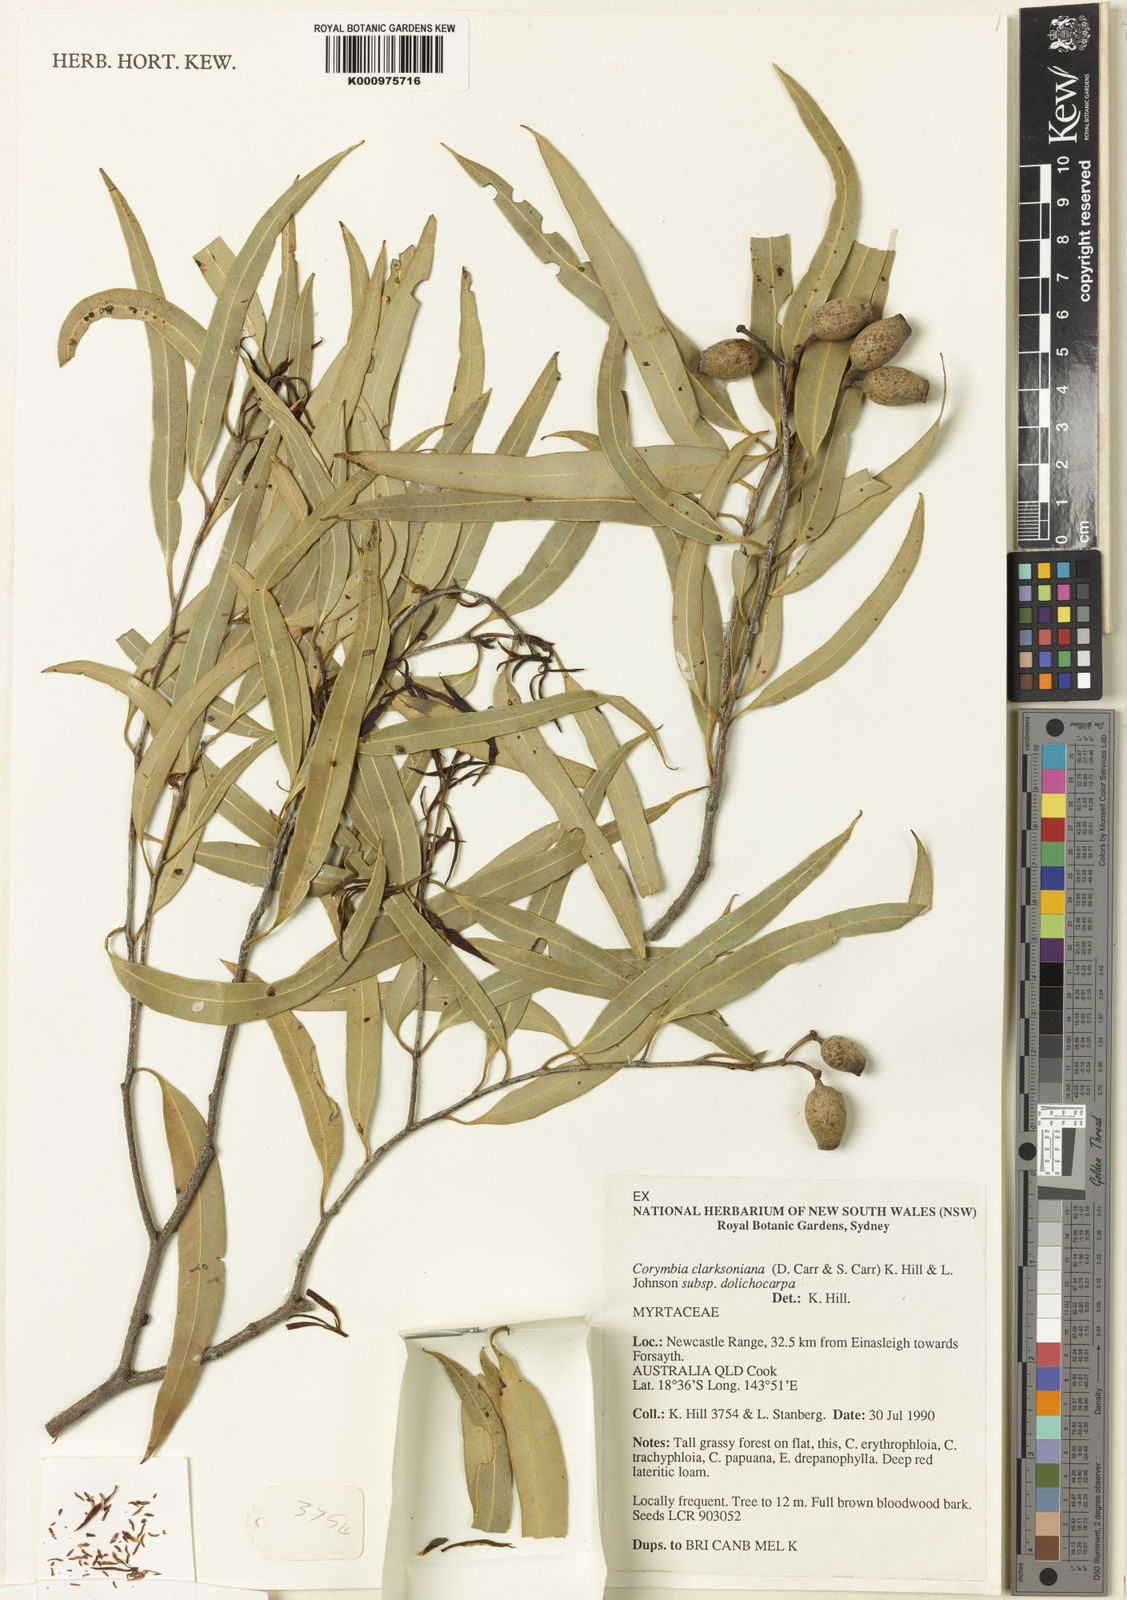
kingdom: Plantae
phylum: Tracheophyta
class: Magnoliopsida
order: Myrtales
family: Myrtaceae
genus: Corymbia
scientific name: Corymbia ligans
